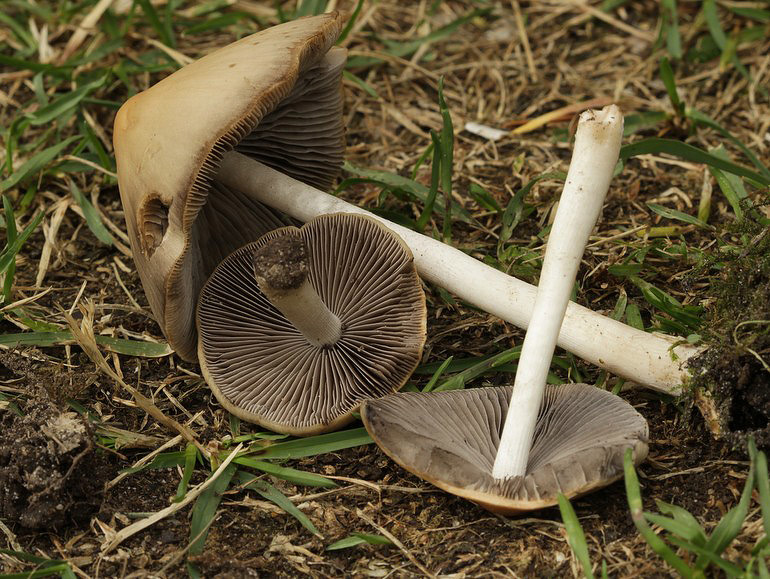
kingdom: Fungi
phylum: Basidiomycota
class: Agaricomycetes
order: Agaricales
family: Psathyrellaceae
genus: Psathyrella
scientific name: Psathyrella fusca
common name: gråbladet mørkhat
